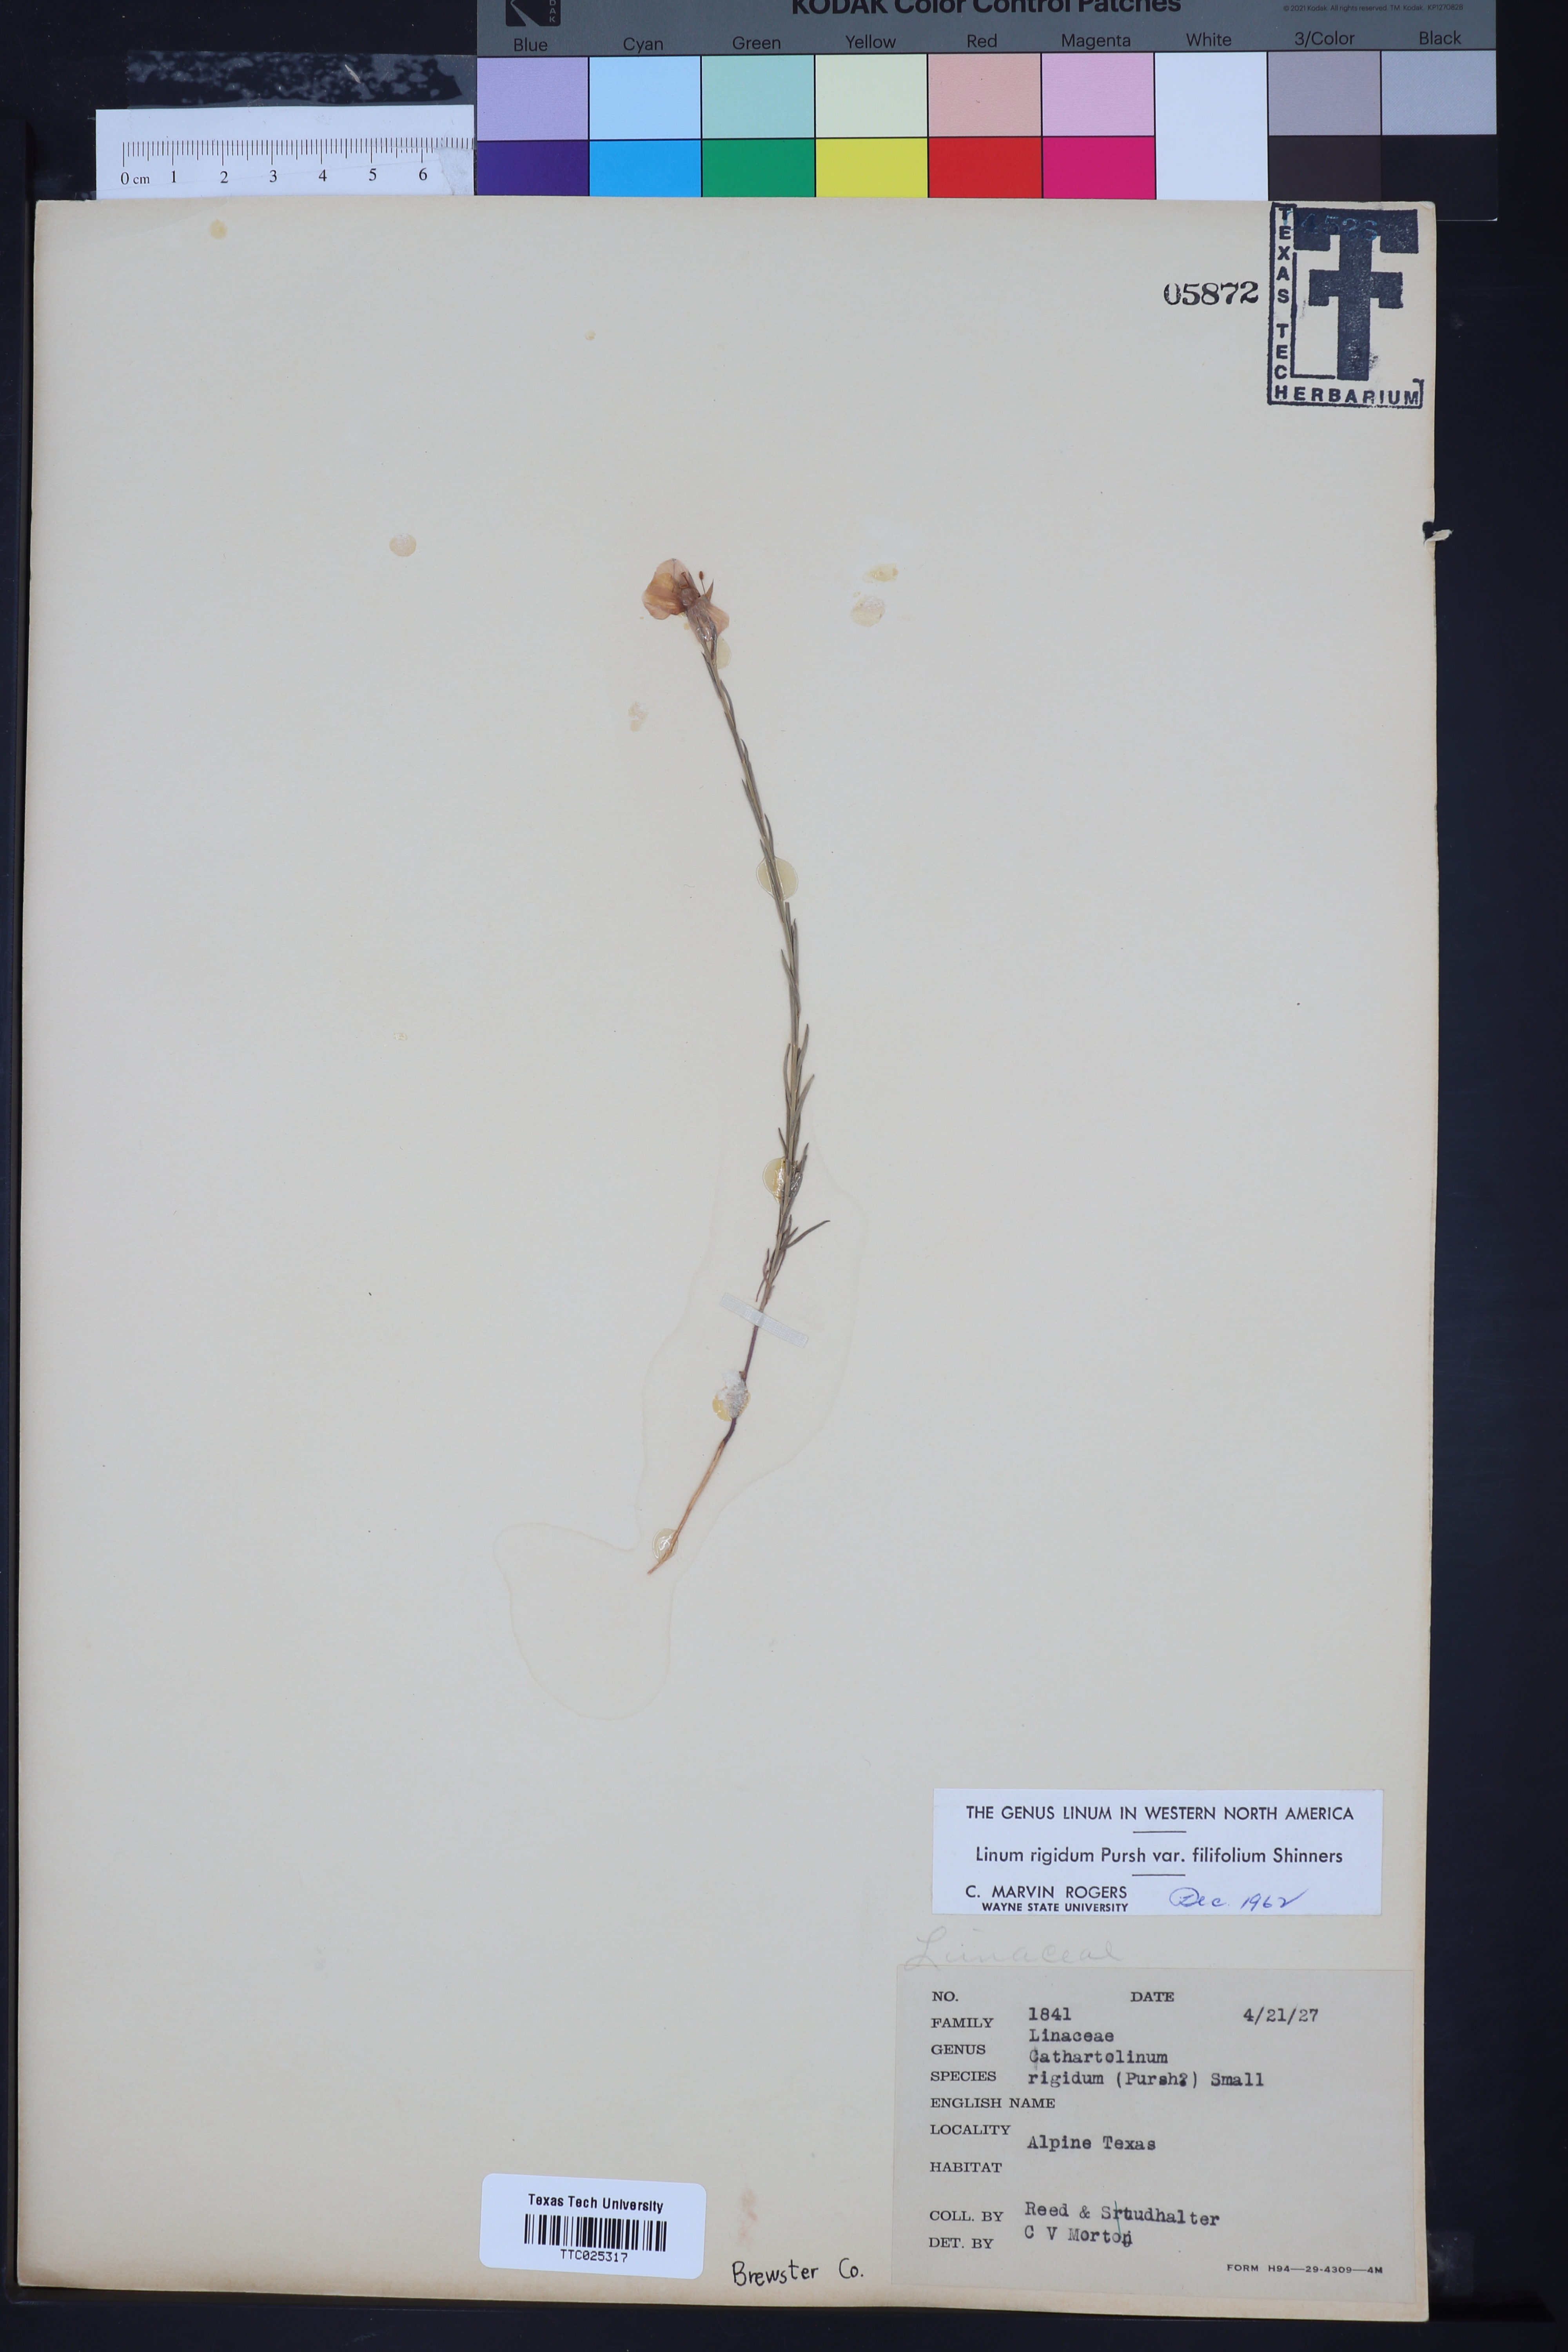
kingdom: Plantae
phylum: Tracheophyta
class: Magnoliopsida
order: Malpighiales
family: Linaceae
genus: Linum
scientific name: Linum berlandieri
